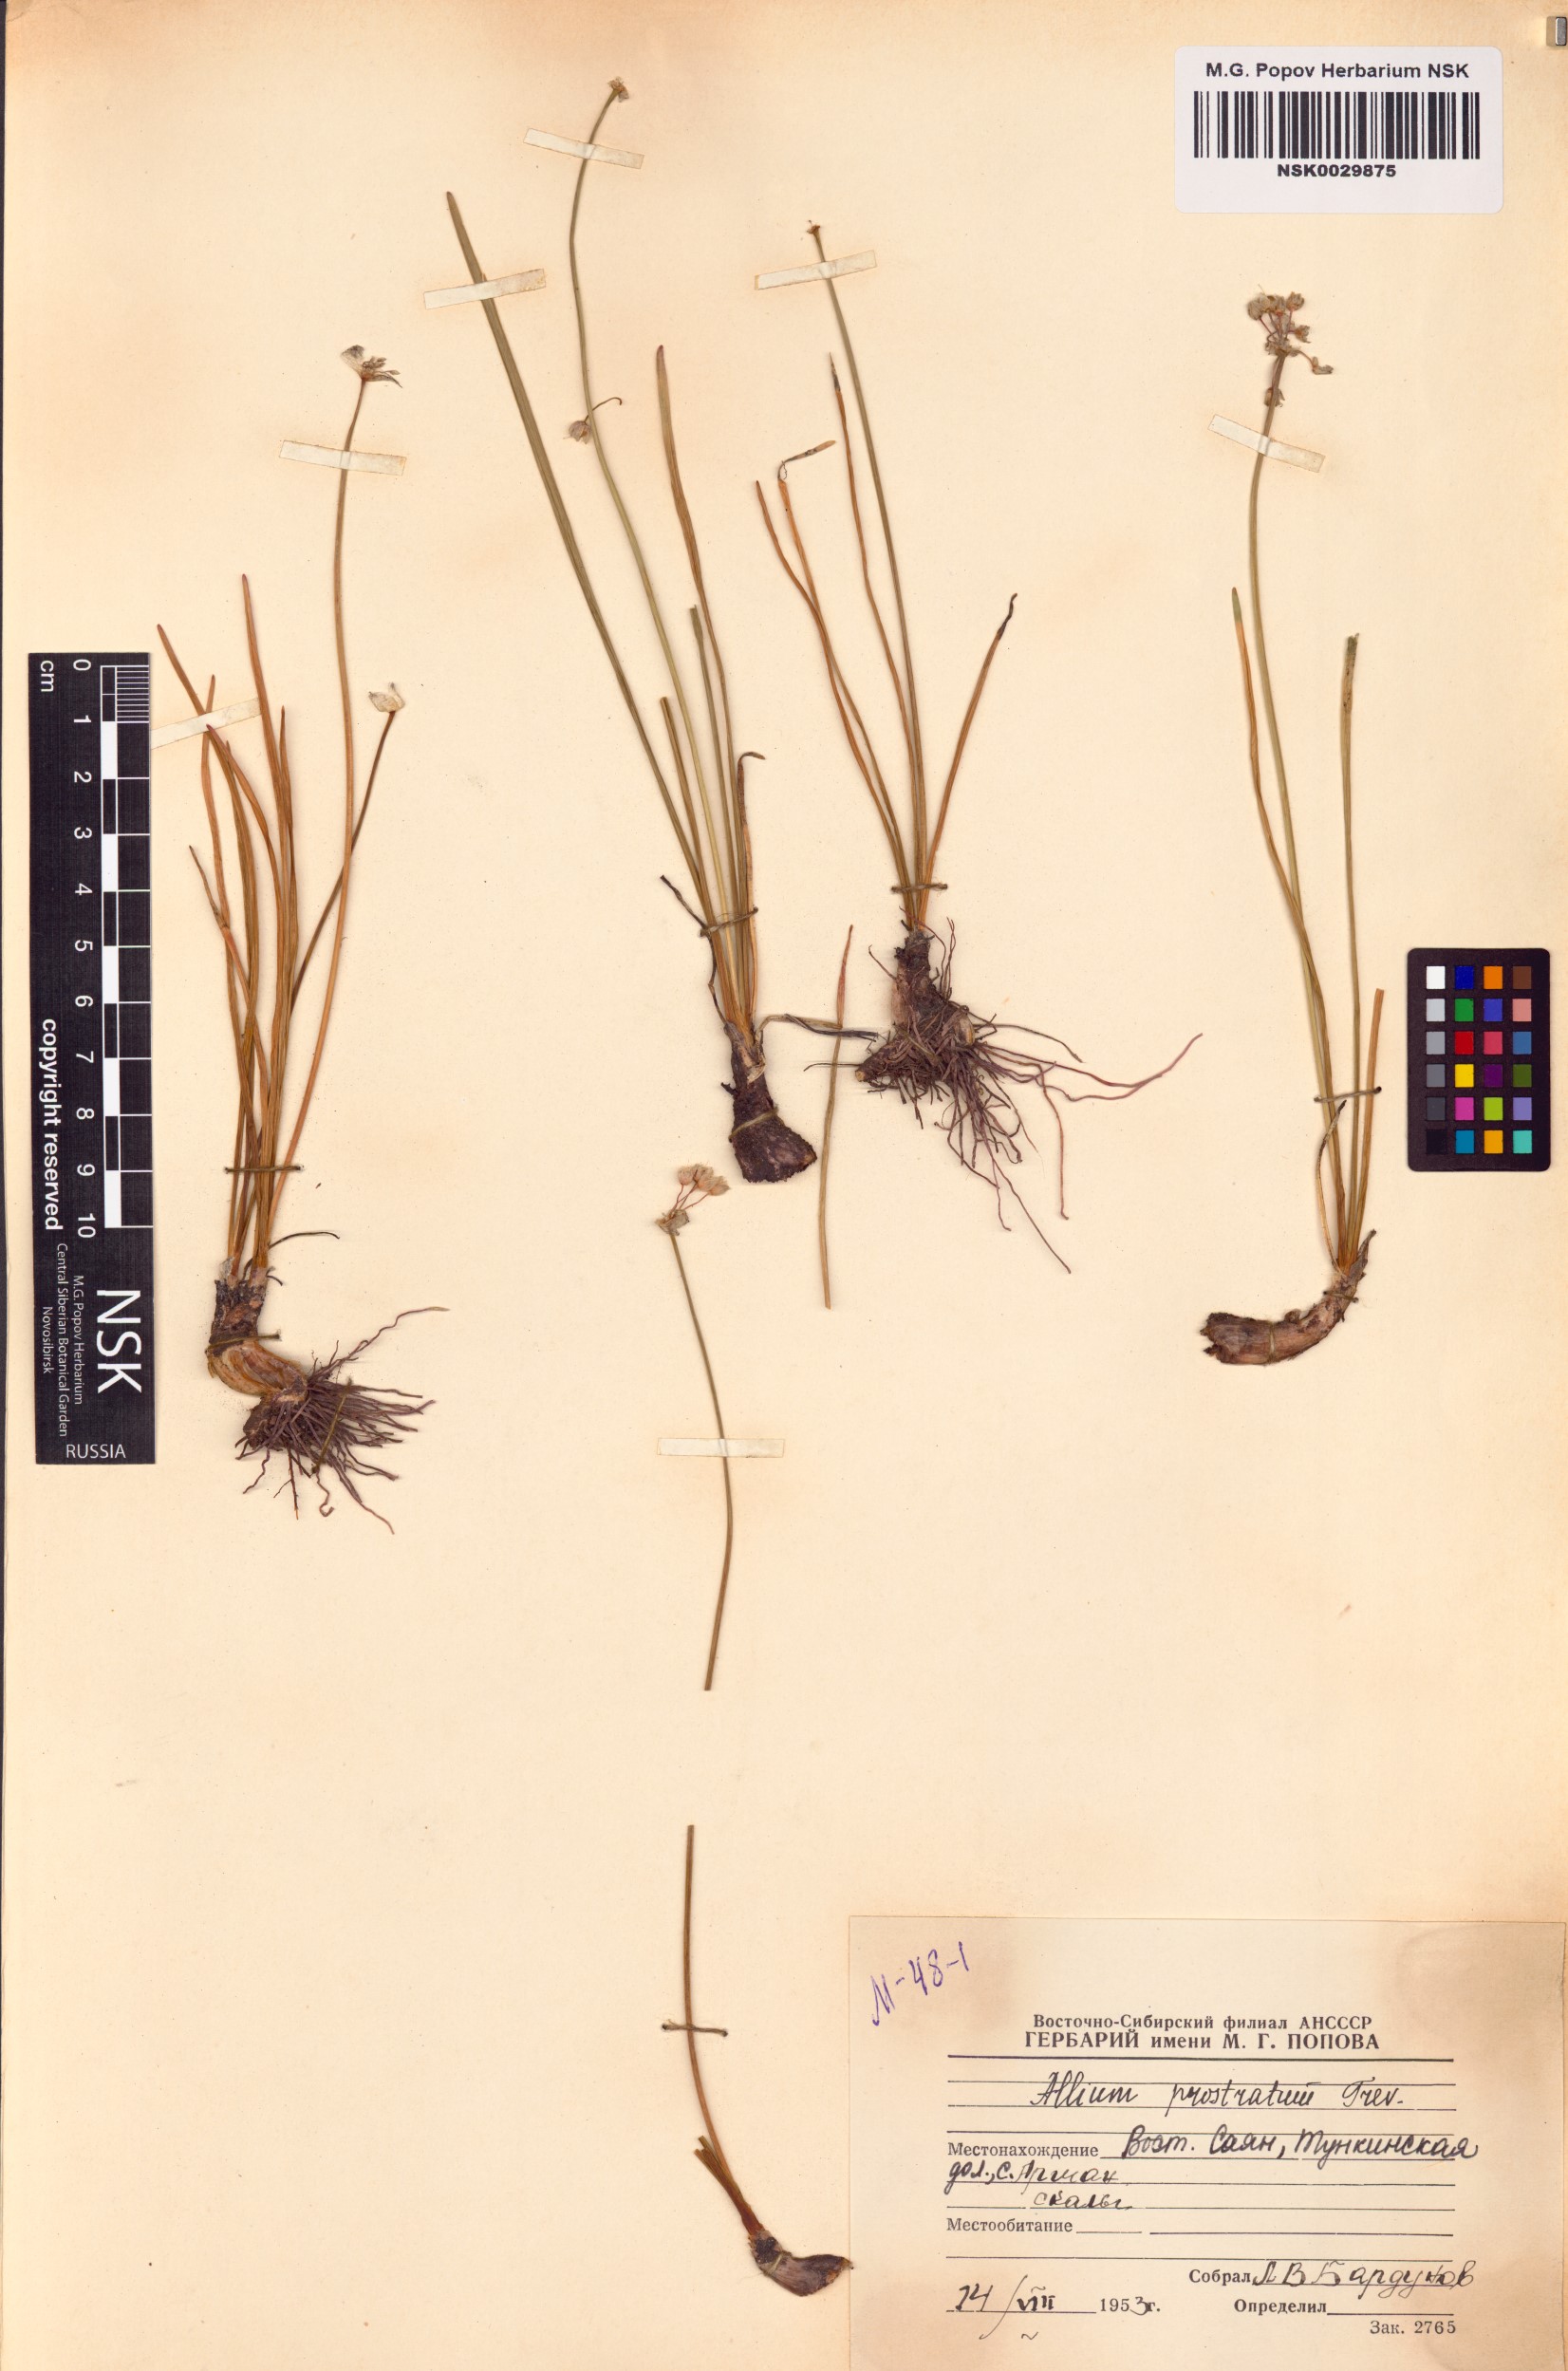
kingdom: Plantae
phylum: Tracheophyta
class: Liliopsida
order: Asparagales
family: Amaryllidaceae
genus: Allium
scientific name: Allium prostratum
